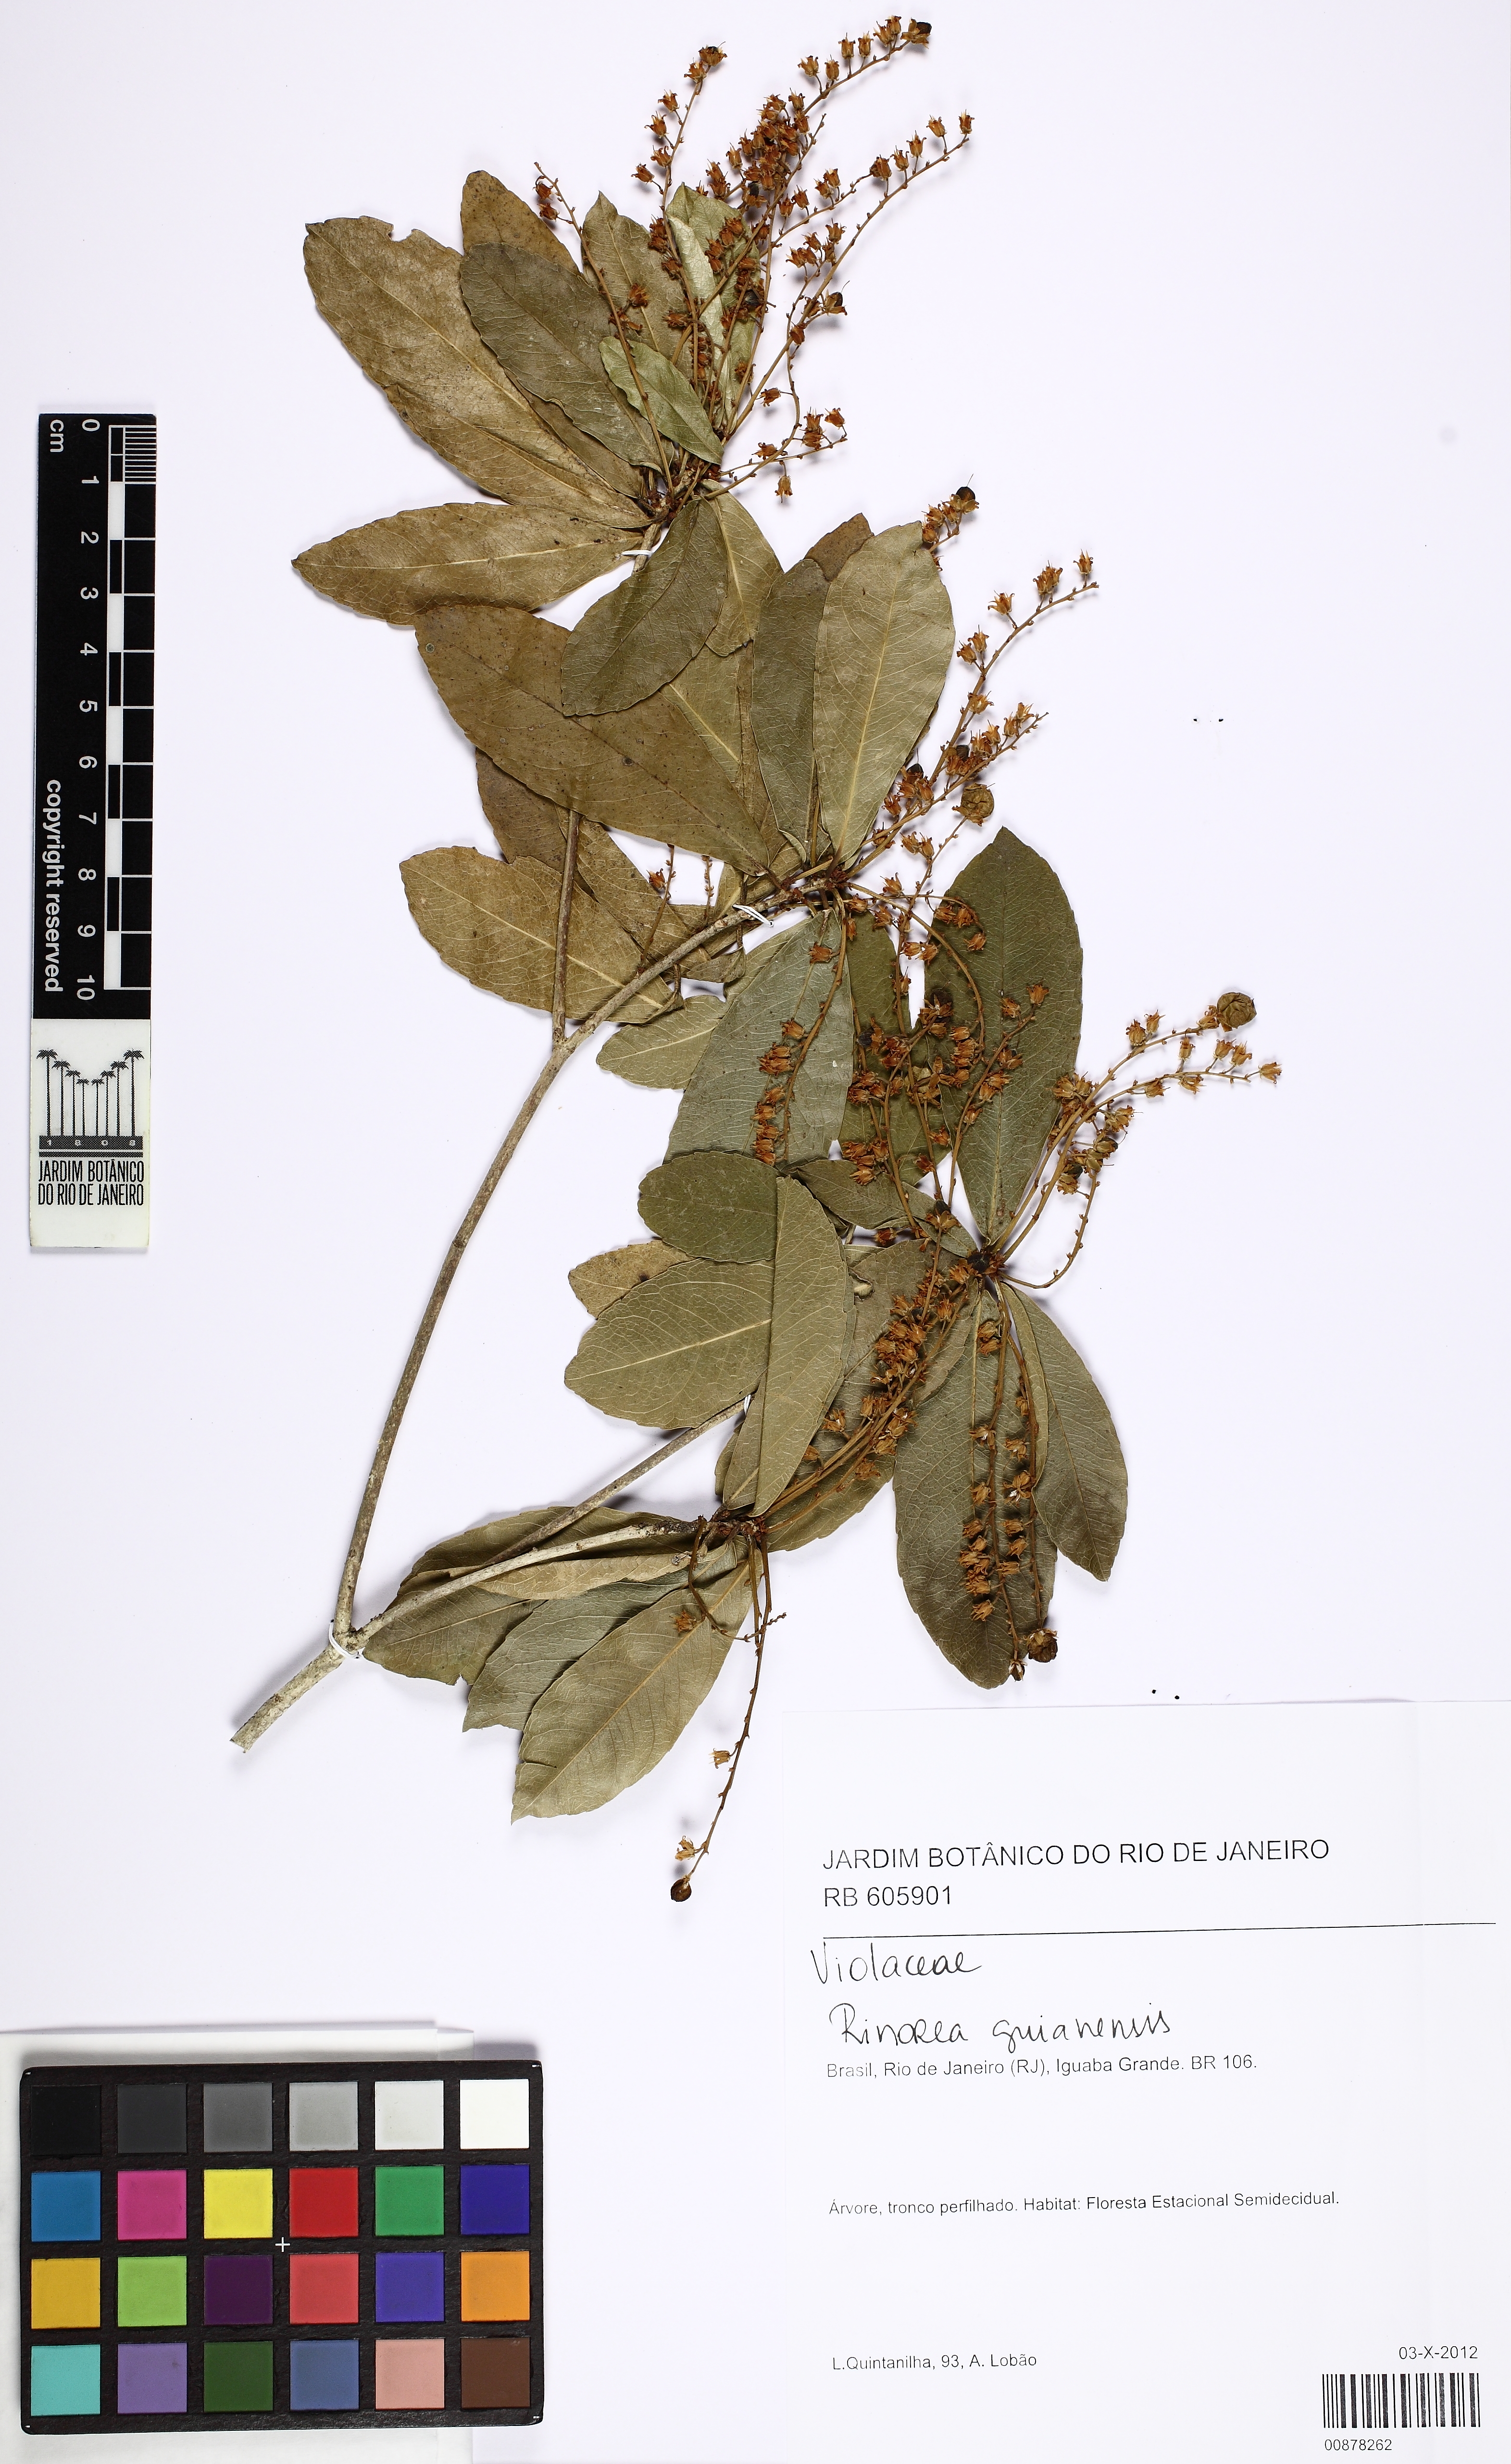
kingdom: Plantae
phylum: Tracheophyta
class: Magnoliopsida
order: Malpighiales
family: Violaceae
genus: Rinorea
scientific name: Rinorea guianensis
